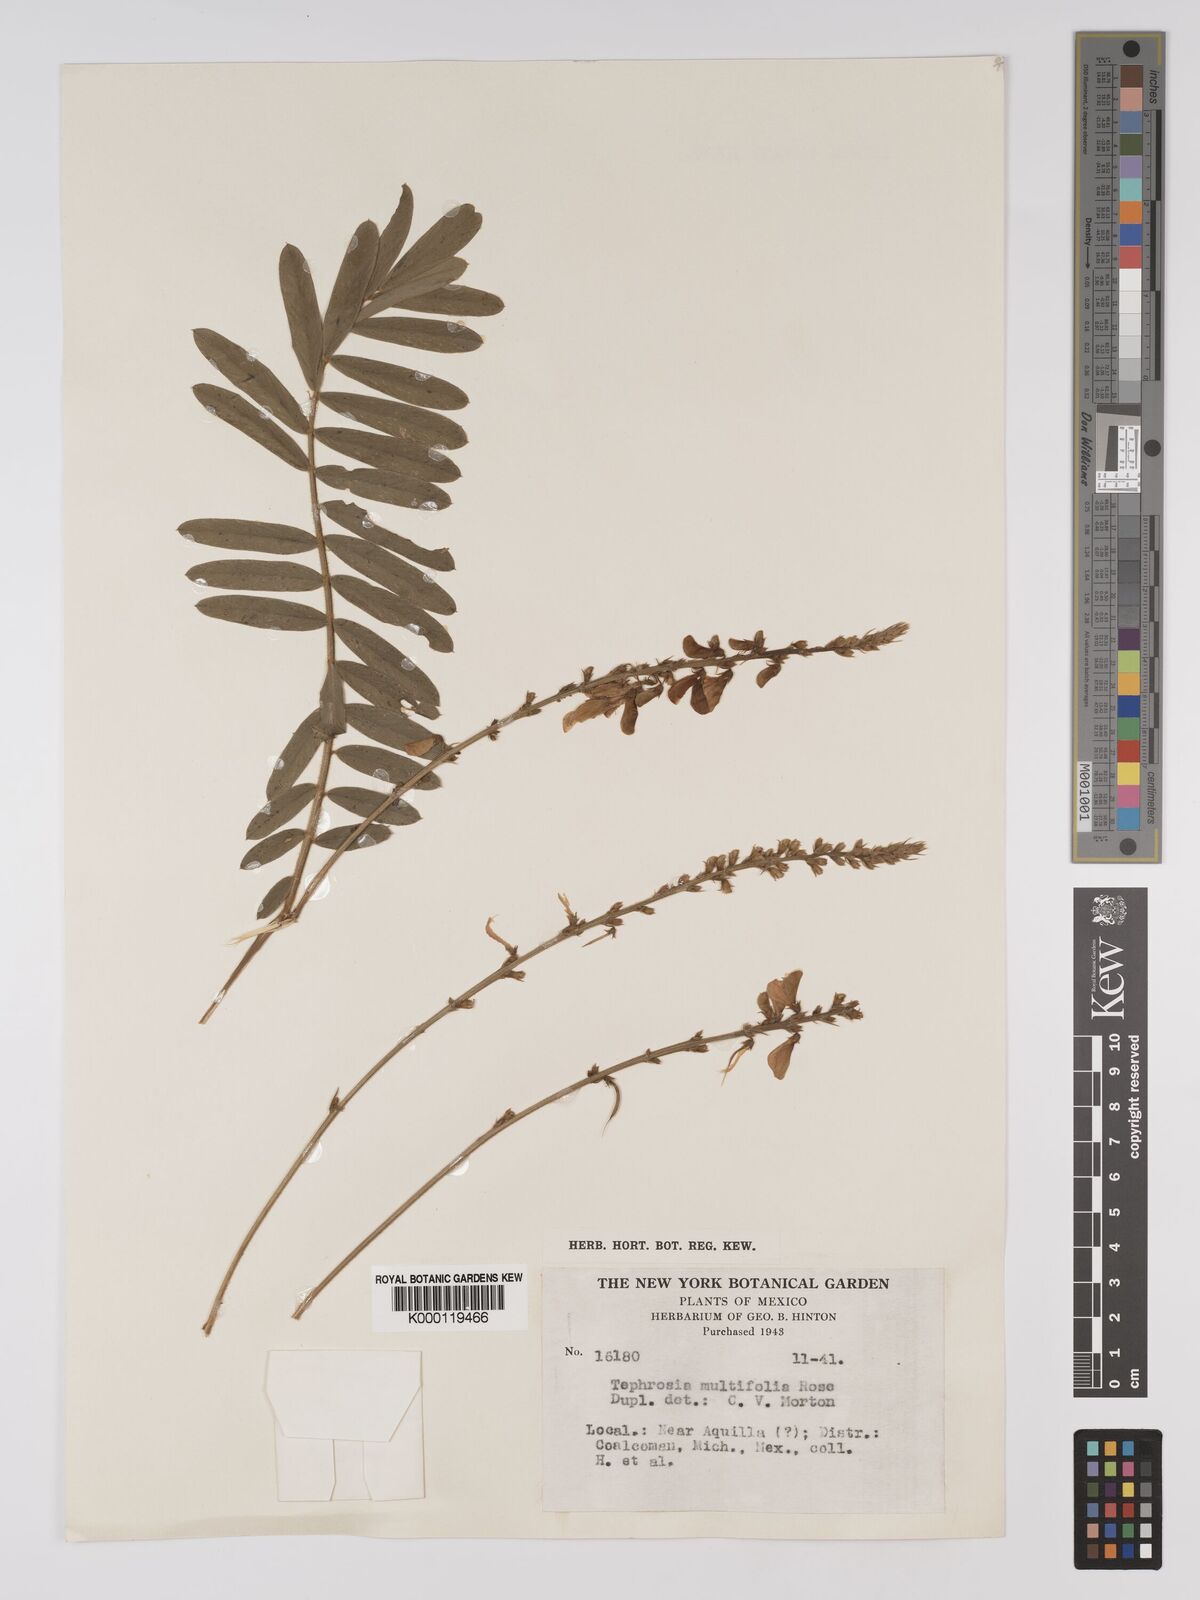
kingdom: Plantae
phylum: Tracheophyta
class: Magnoliopsida
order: Fabales
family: Fabaceae
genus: Tephrosia
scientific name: Tephrosia multifolia
